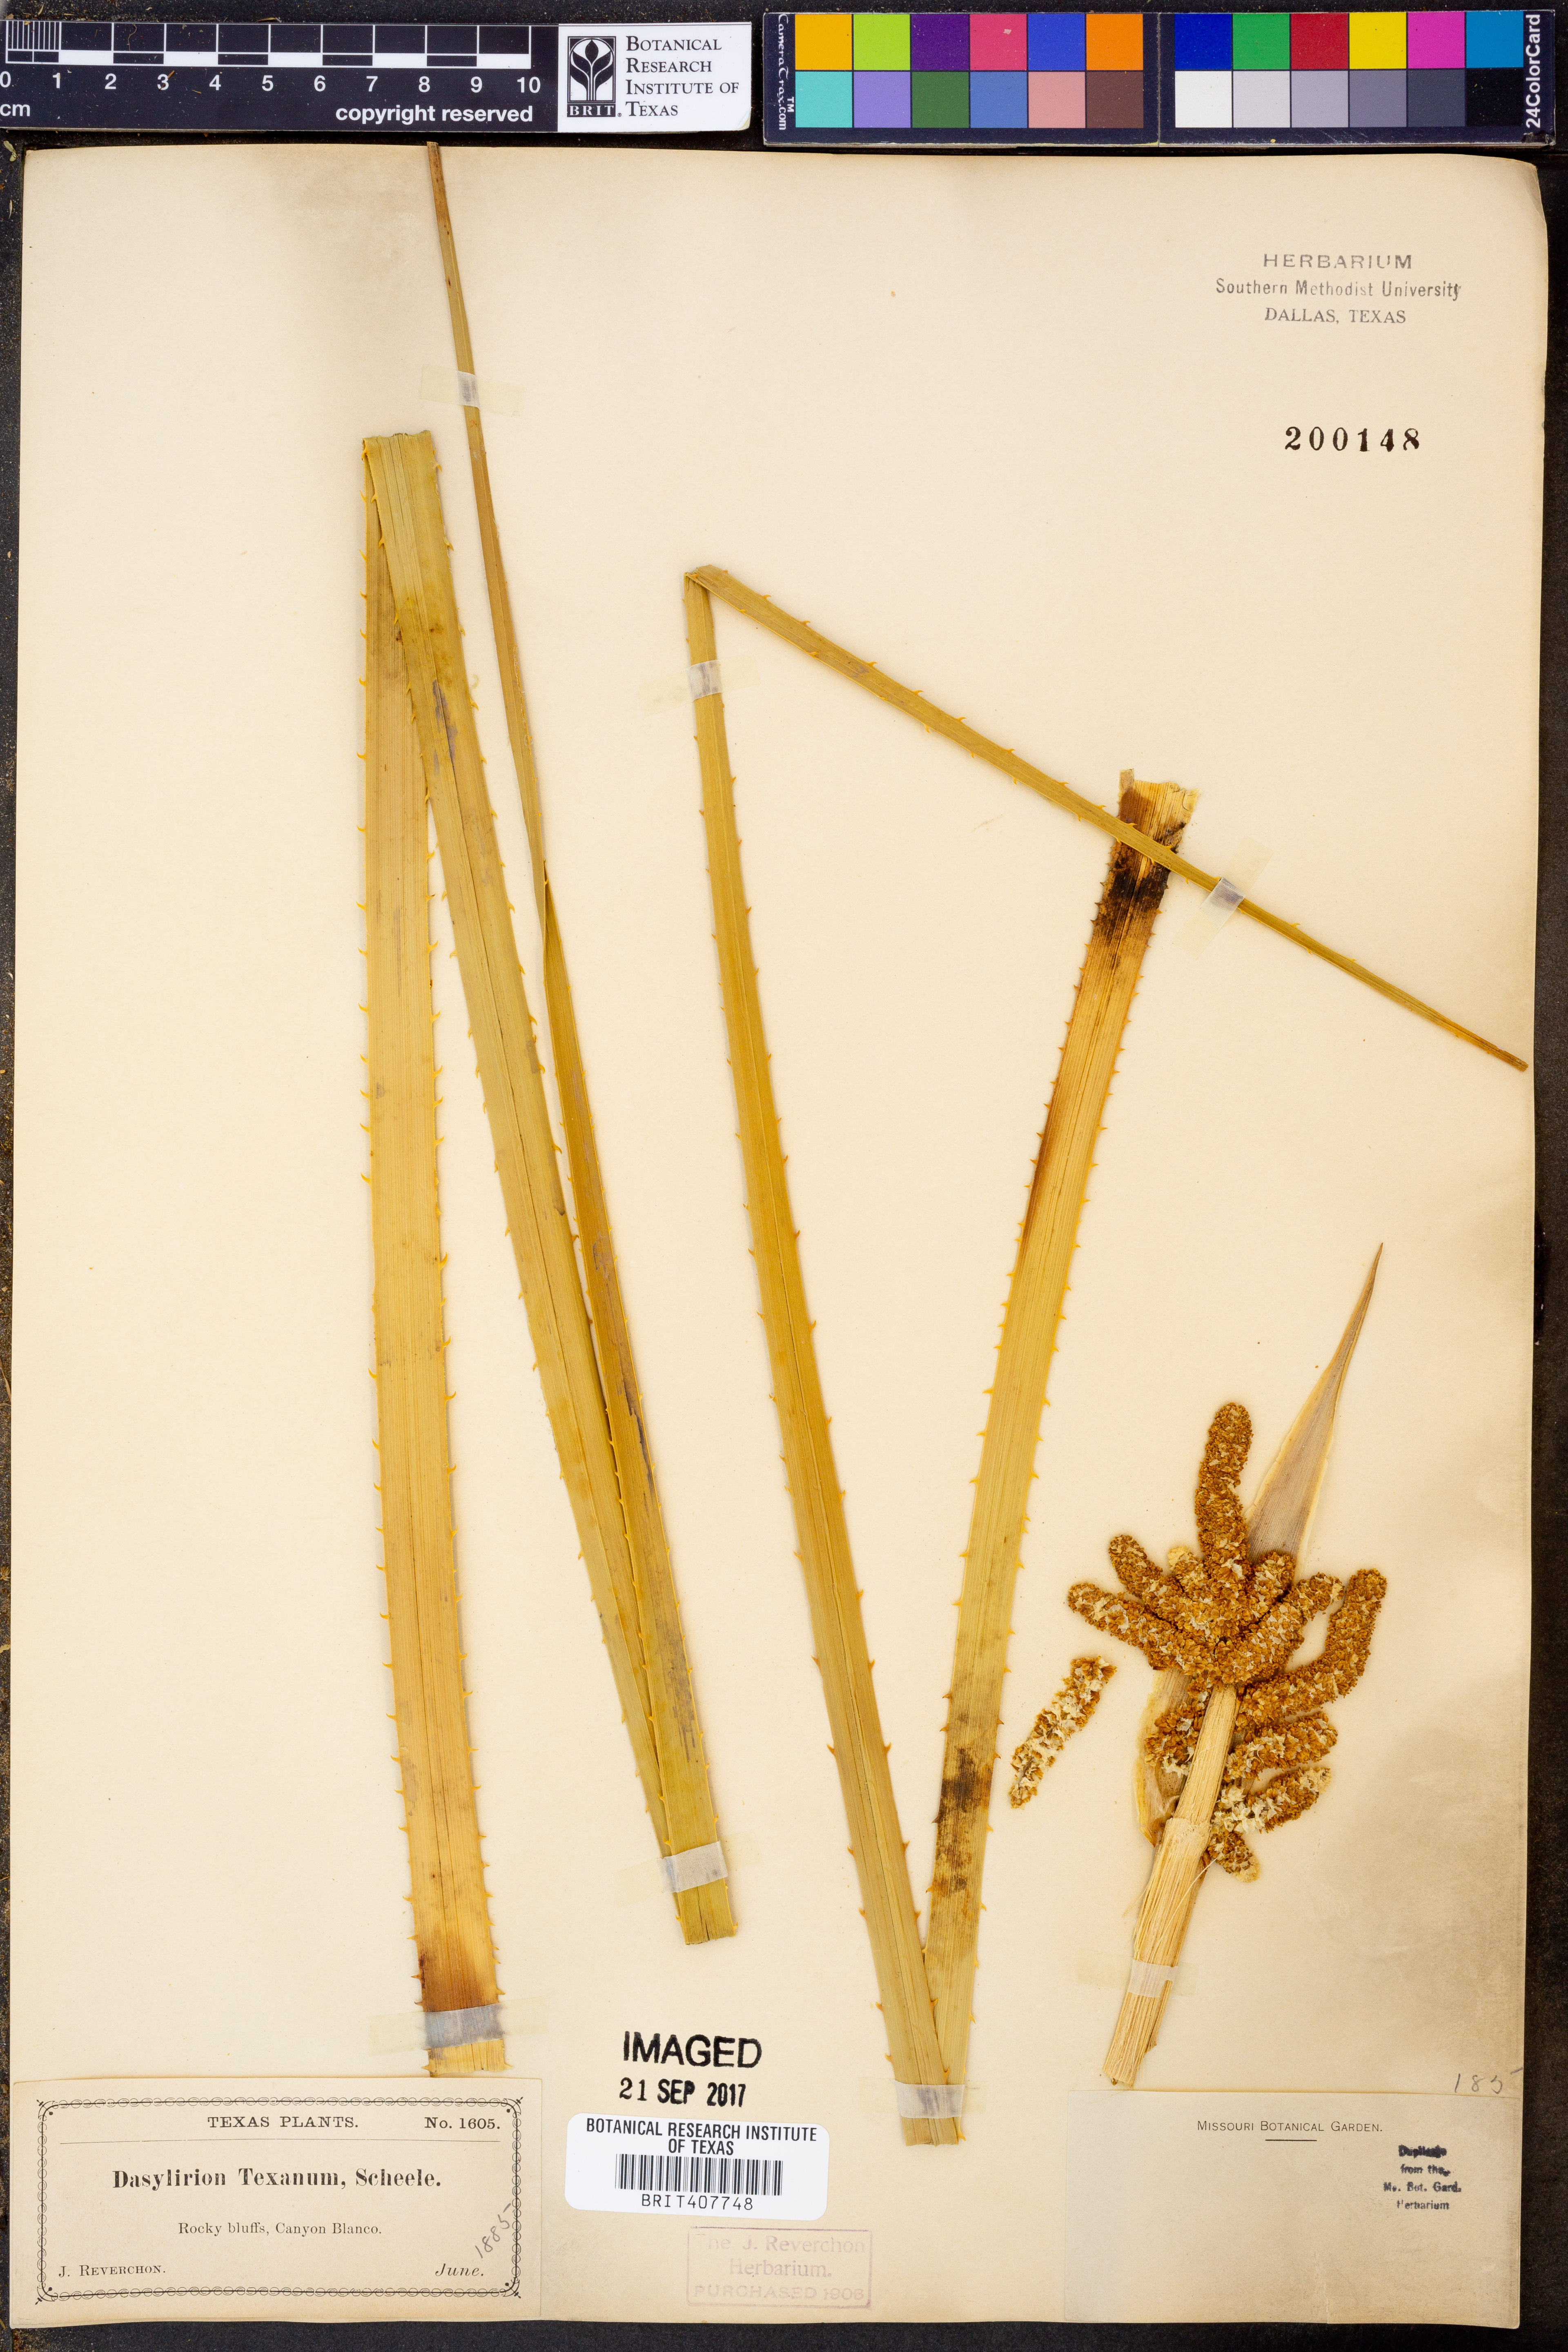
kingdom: Plantae
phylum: Tracheophyta
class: Liliopsida
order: Asparagales
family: Asparagaceae
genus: Dasylirion
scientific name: Dasylirion texanum
